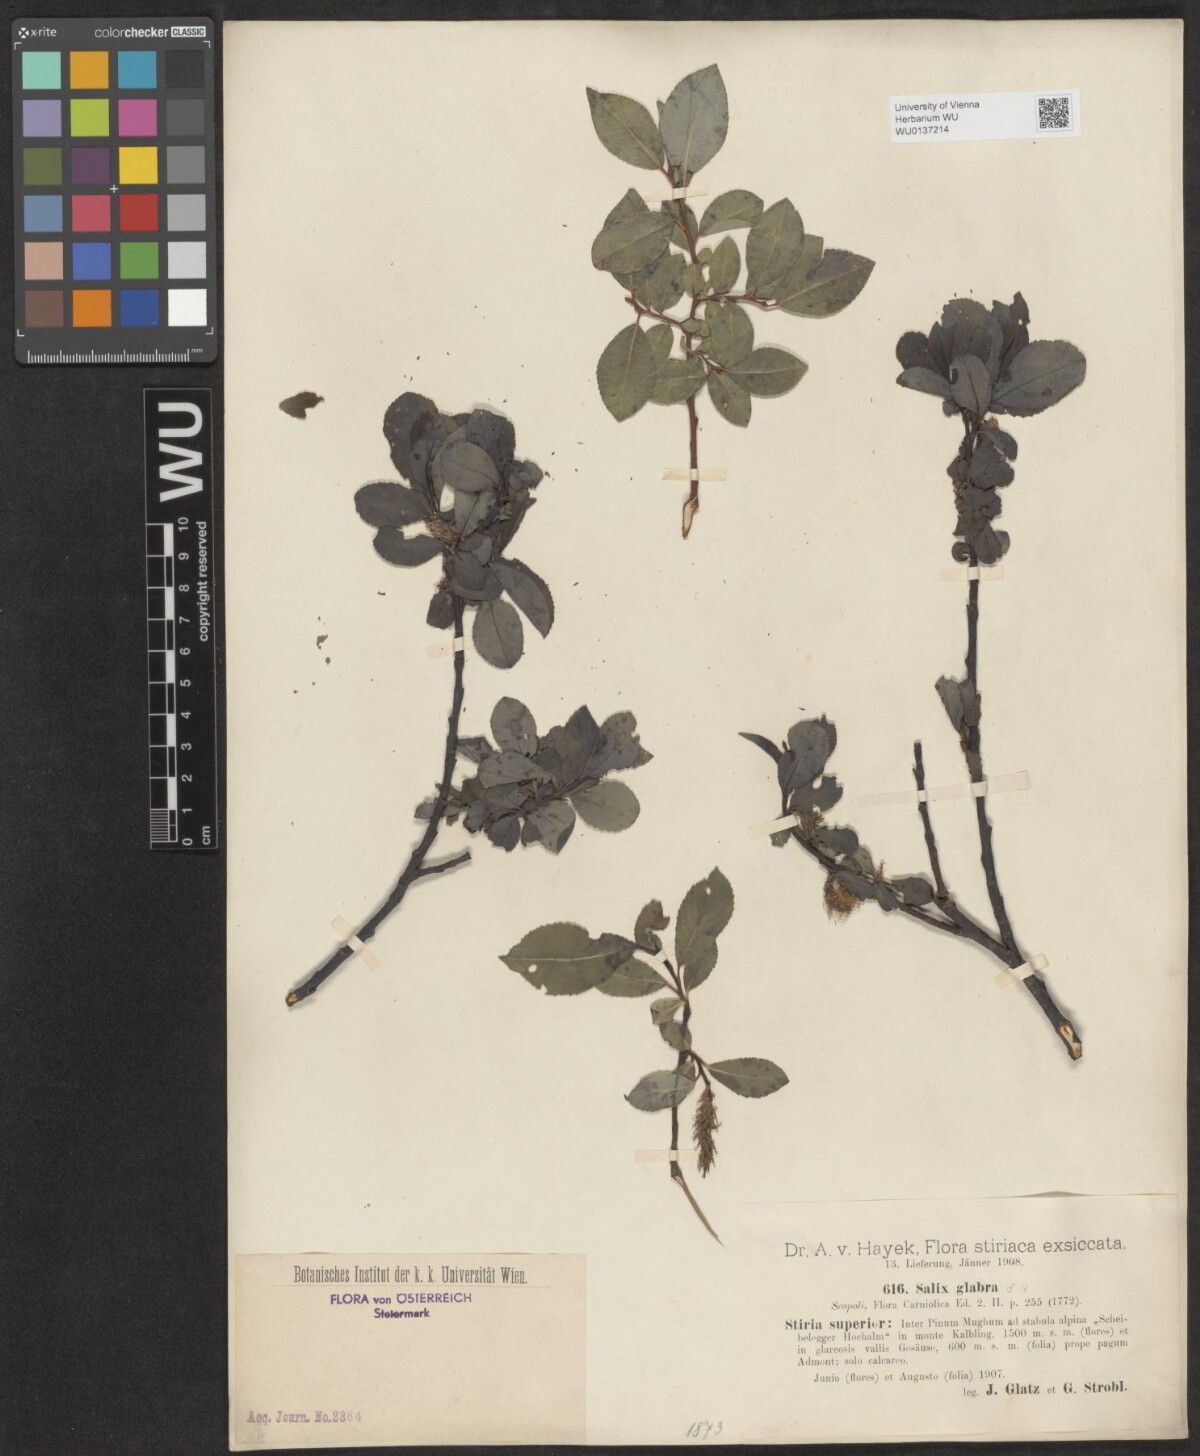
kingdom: Plantae
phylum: Tracheophyta
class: Magnoliopsida
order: Malpighiales
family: Salicaceae
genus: Salix
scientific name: Salix glabra
